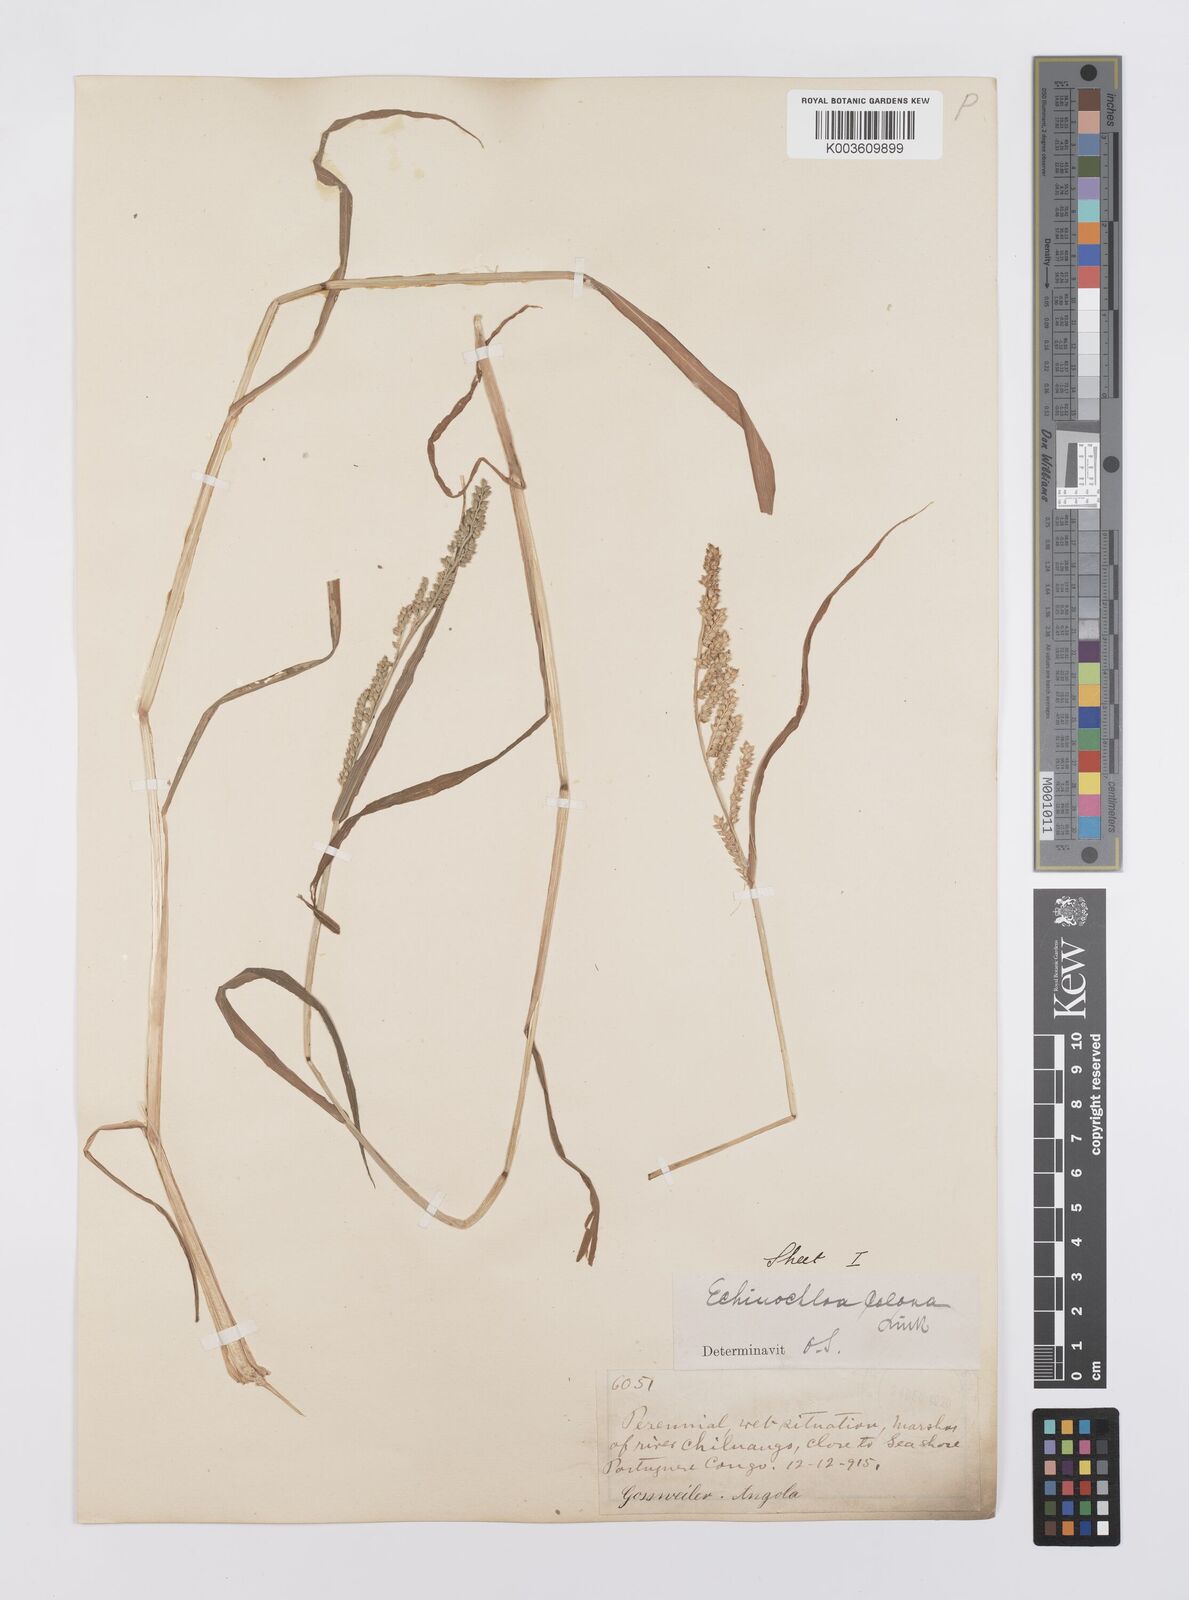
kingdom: Plantae
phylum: Tracheophyta
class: Liliopsida
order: Poales
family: Poaceae
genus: Echinochloa
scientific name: Echinochloa colonum
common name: Jungle rice
